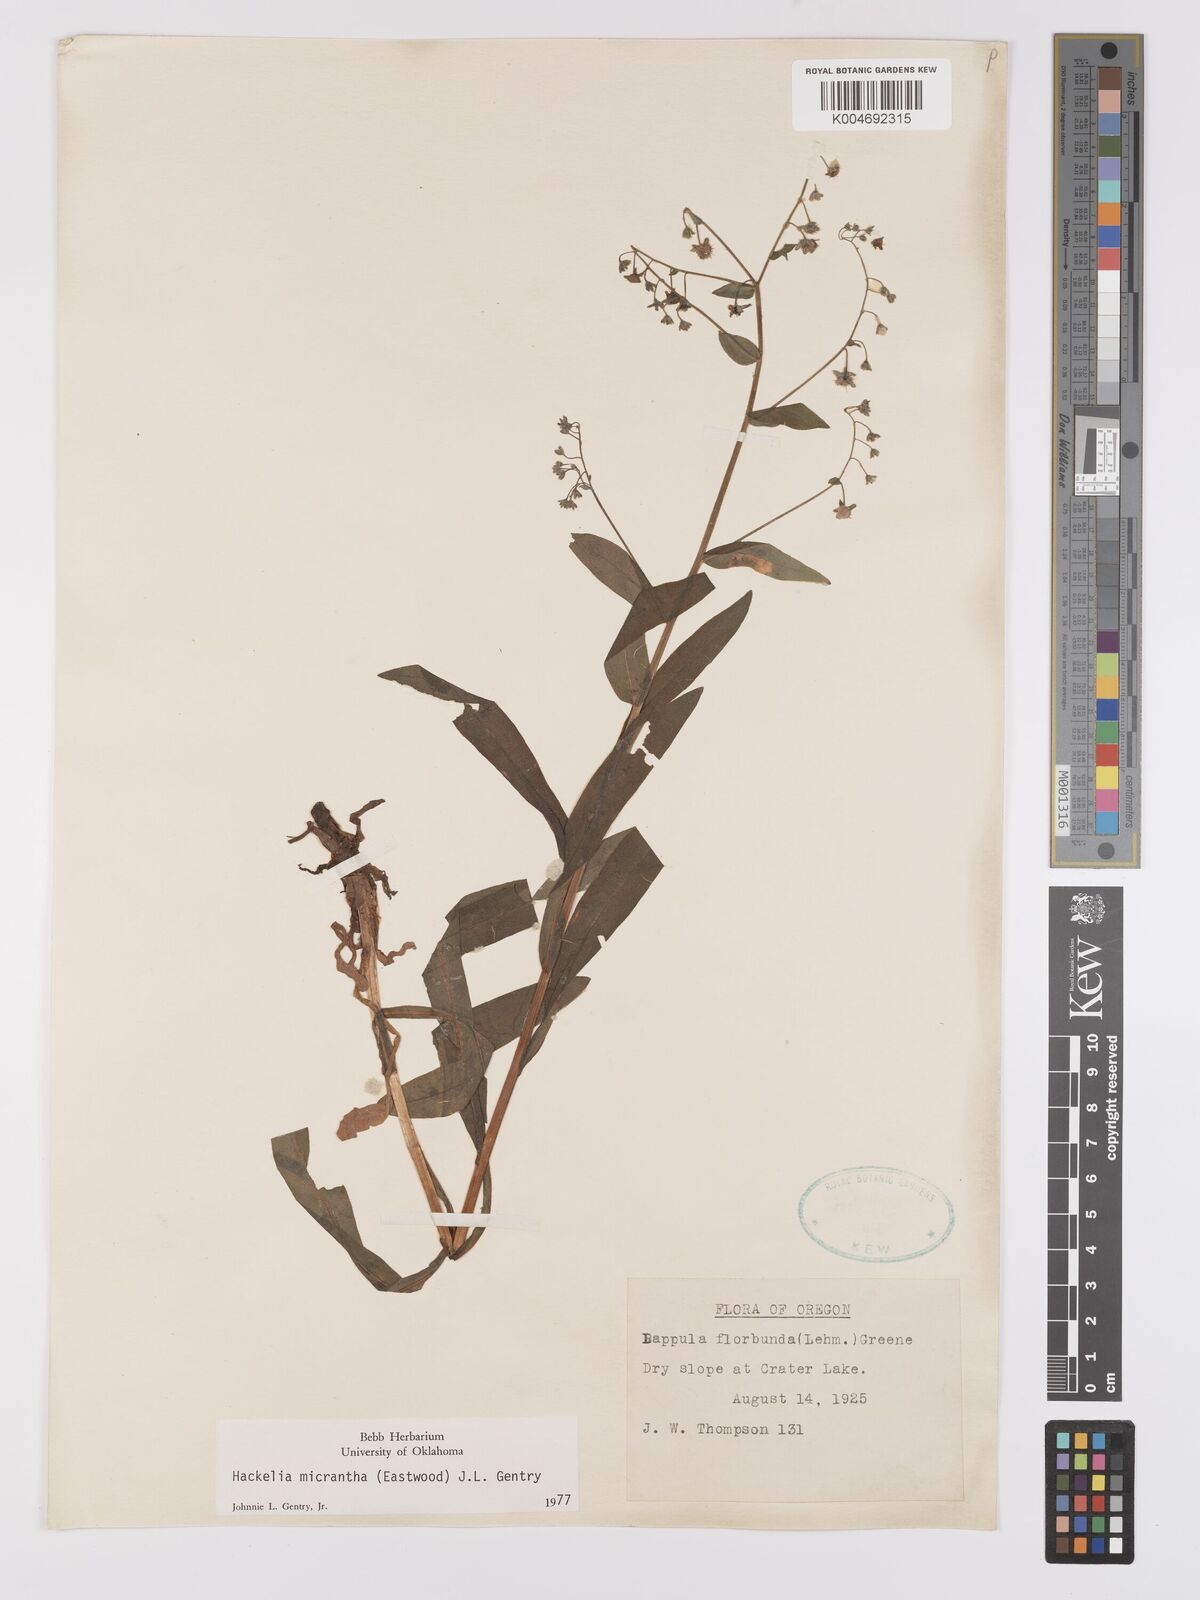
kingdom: Plantae
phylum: Tracheophyta
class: Magnoliopsida
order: Boraginales
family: Boraginaceae
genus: Hackelia
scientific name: Hackelia diffusa
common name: Spreading hackelia
